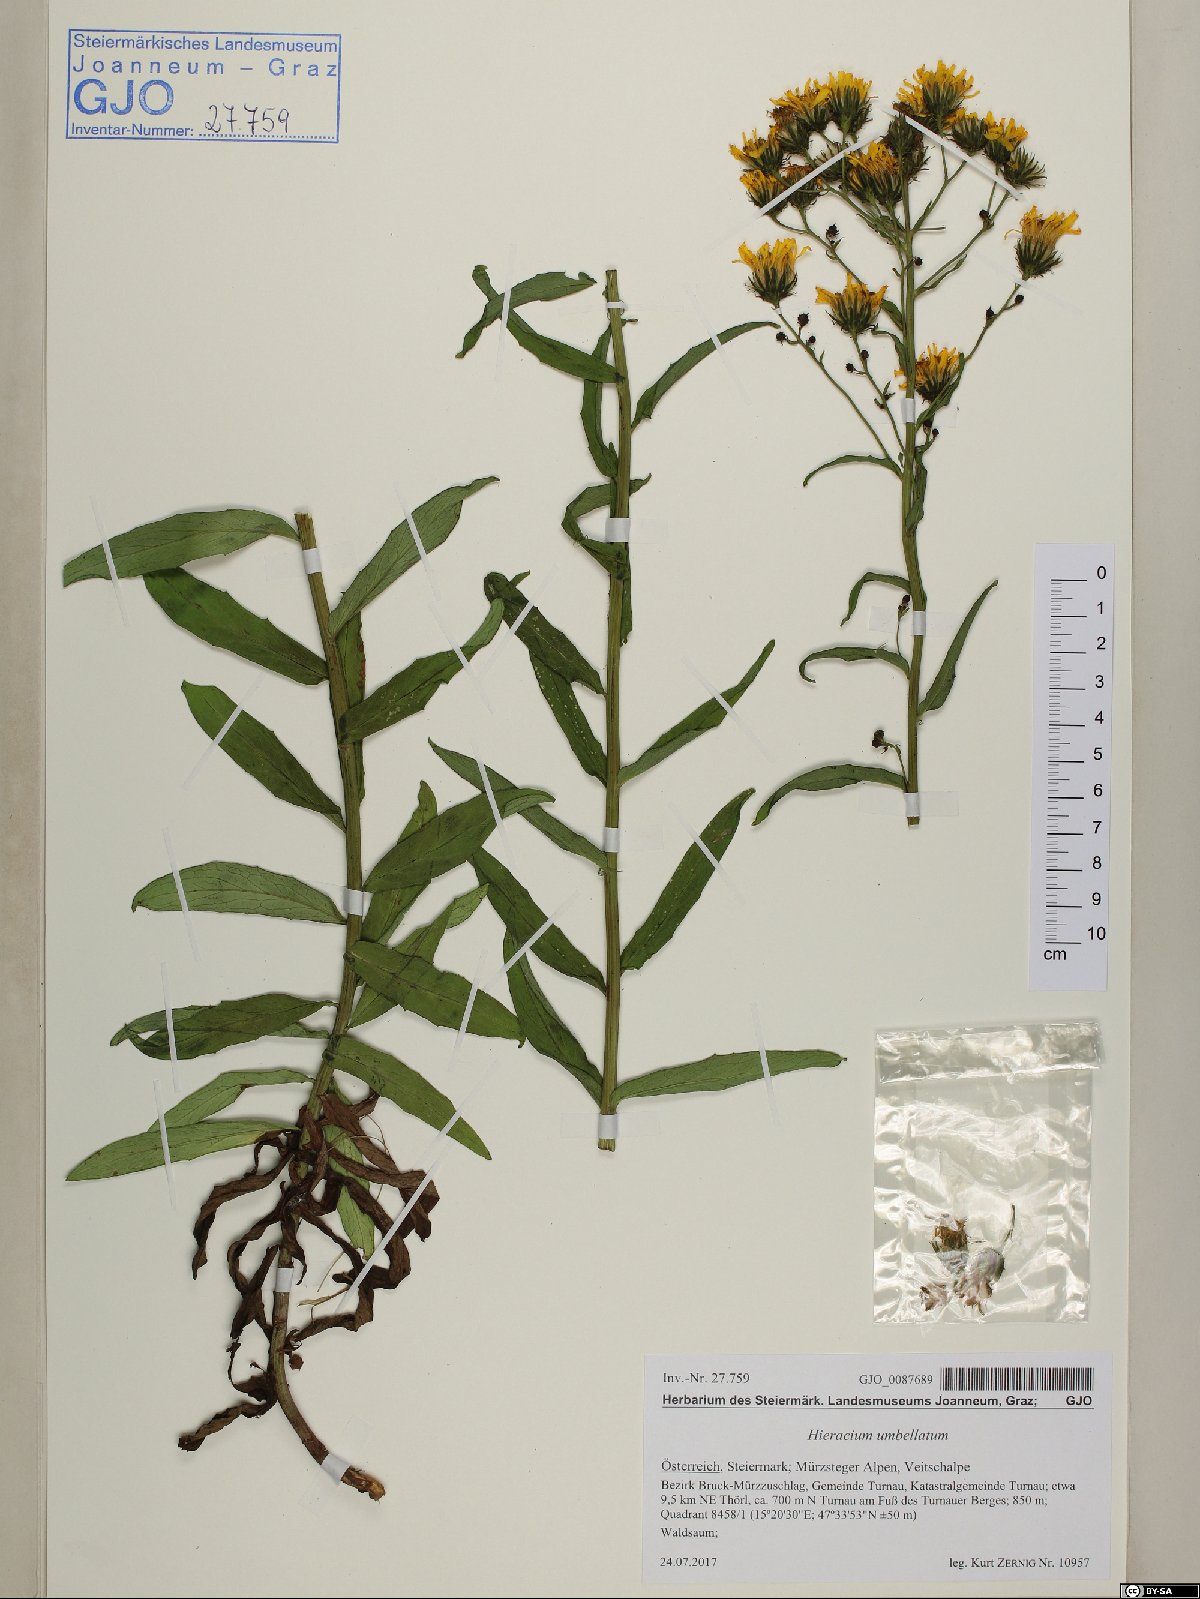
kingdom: Plantae
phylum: Tracheophyta
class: Magnoliopsida
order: Asterales
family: Asteraceae
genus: Hieracium
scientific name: Hieracium umbellatum
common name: Northern hawkweed
